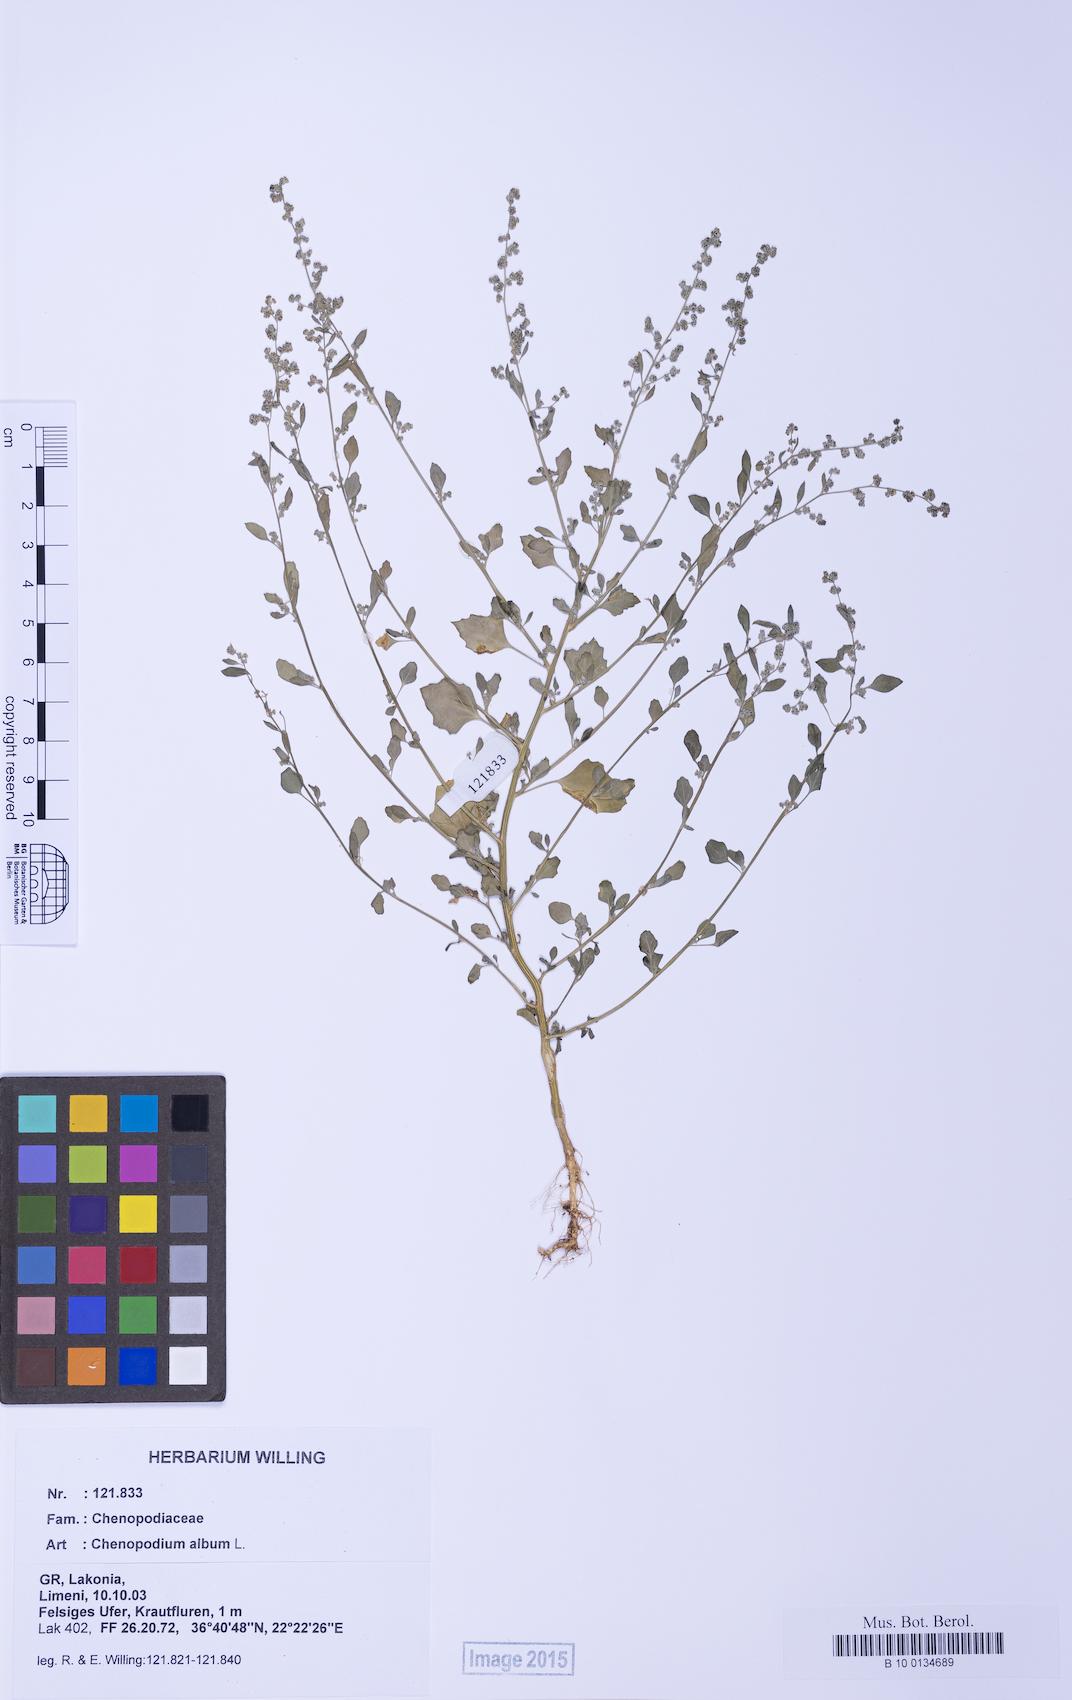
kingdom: Plantae
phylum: Tracheophyta
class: Magnoliopsida
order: Caryophyllales
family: Amaranthaceae
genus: Chenopodium
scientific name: Chenopodium striatiforme
